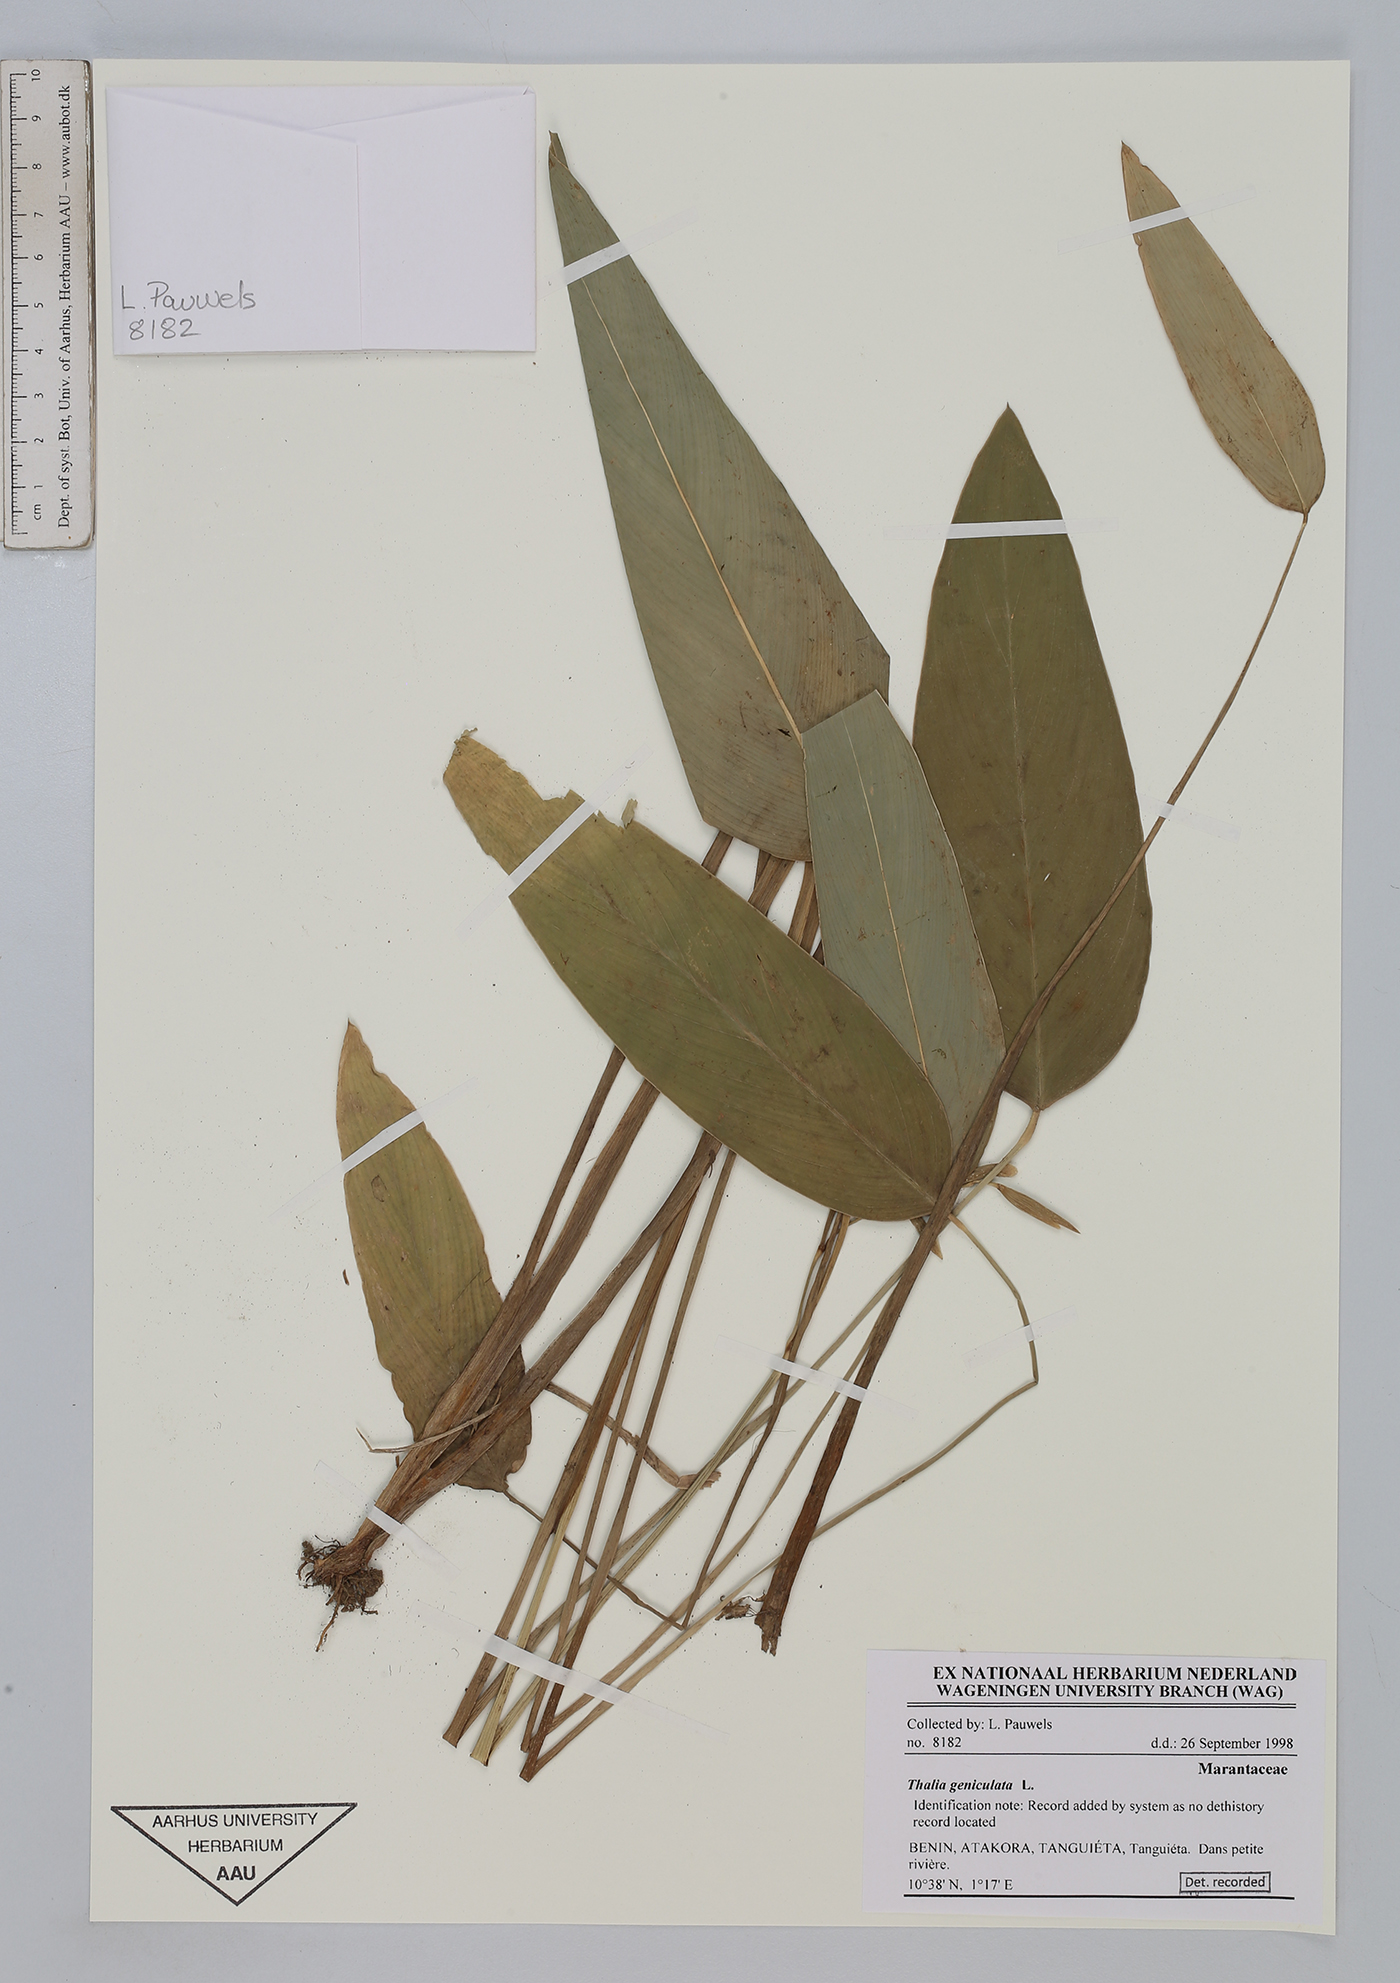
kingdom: Plantae
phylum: Tracheophyta
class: Liliopsida
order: Zingiberales
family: Marantaceae
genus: Thalia
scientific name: Thalia geniculata
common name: Arrowroot
